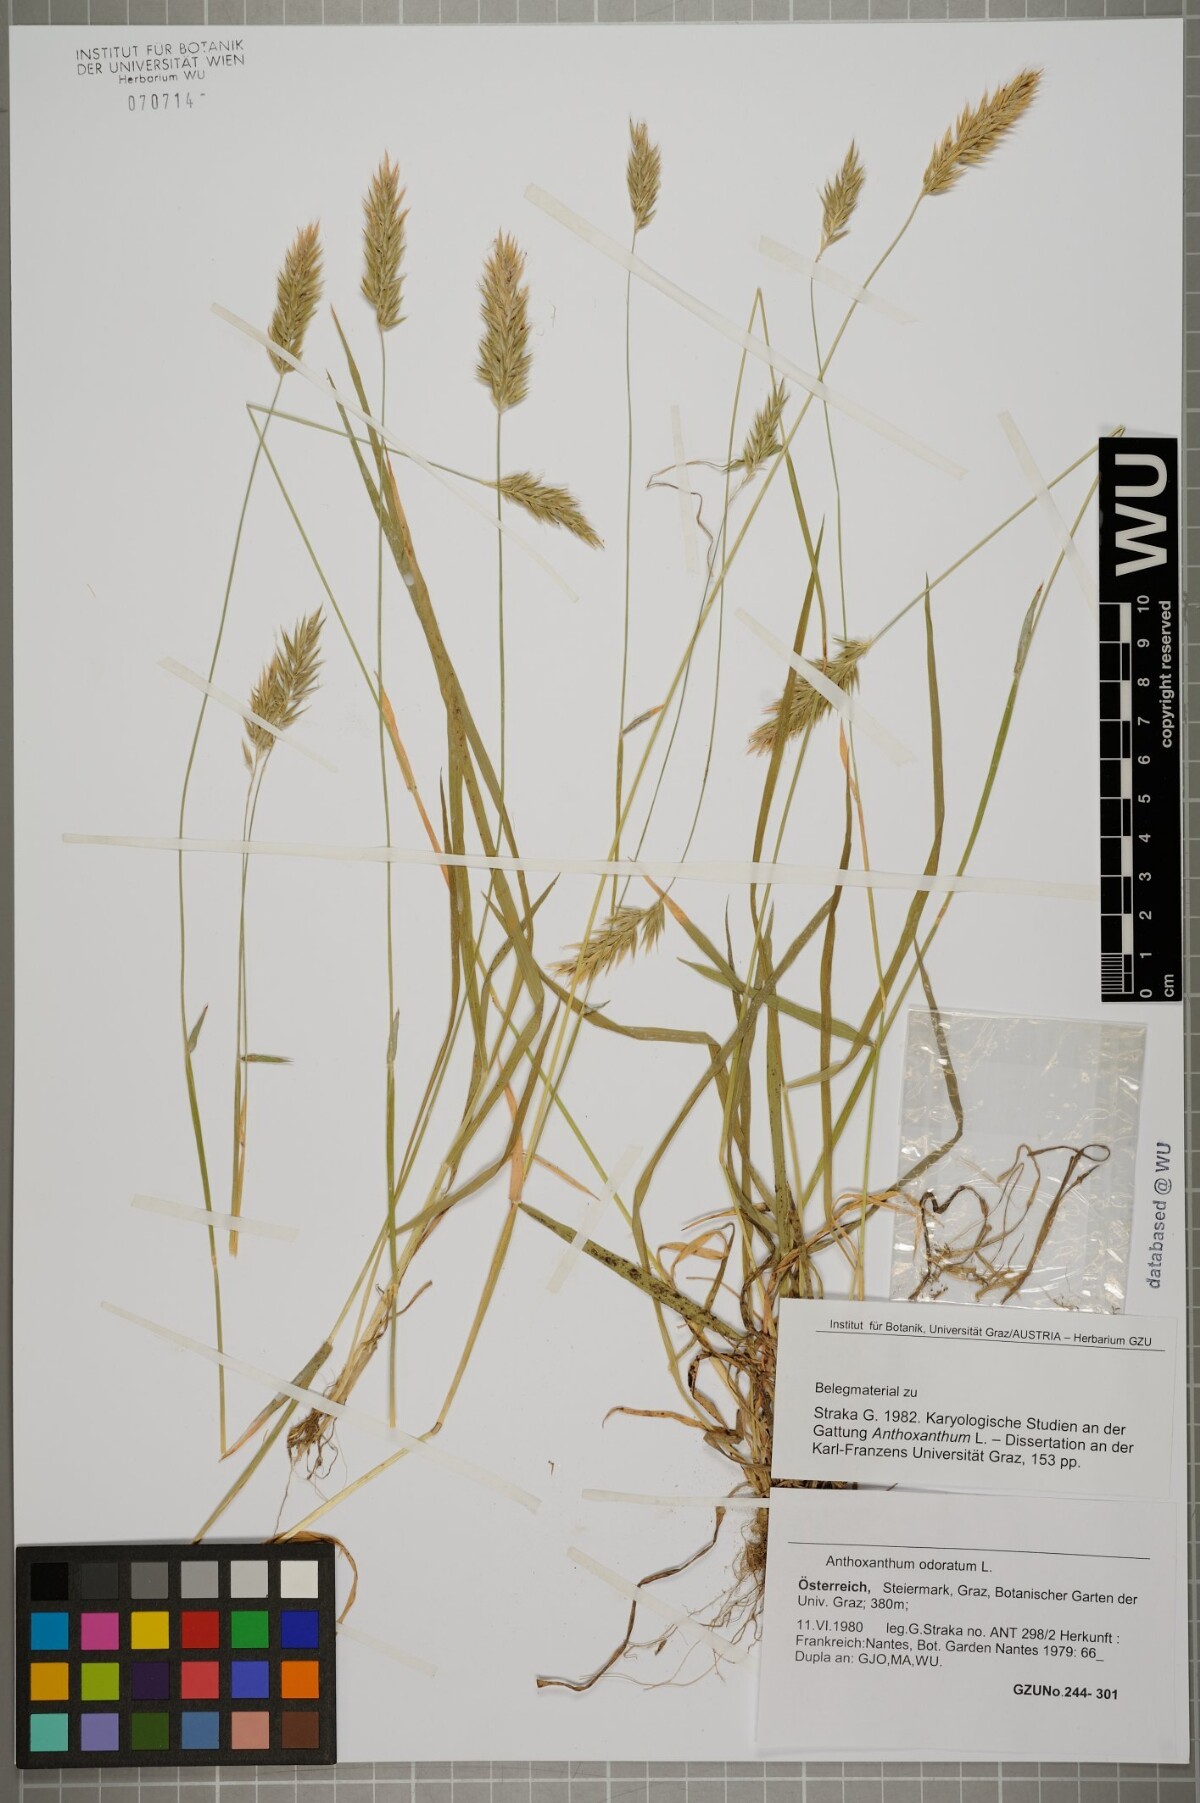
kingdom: Plantae
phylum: Tracheophyta
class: Liliopsida
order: Poales
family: Poaceae
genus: Anthoxanthum
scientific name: Anthoxanthum odoratum
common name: Sweet vernalgrass
